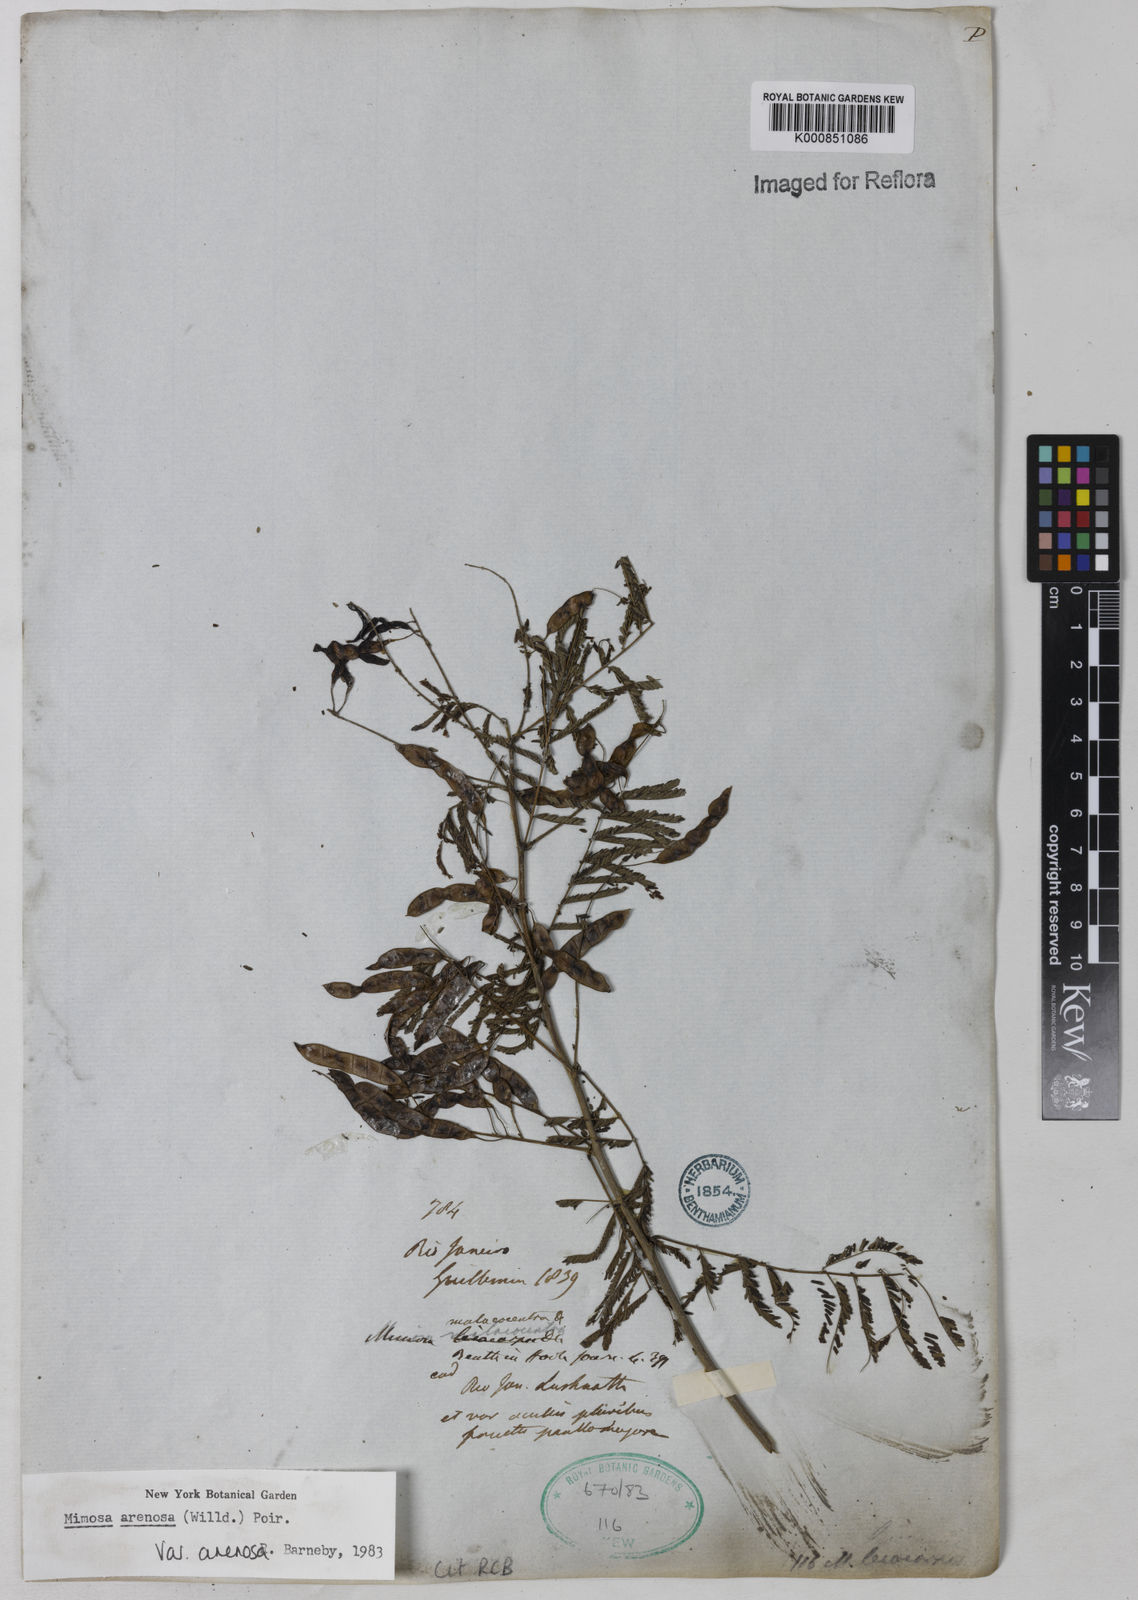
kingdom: Plantae
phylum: Tracheophyta
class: Magnoliopsida
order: Fabales
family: Fabaceae
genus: Mimosa
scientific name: Mimosa arenosa
